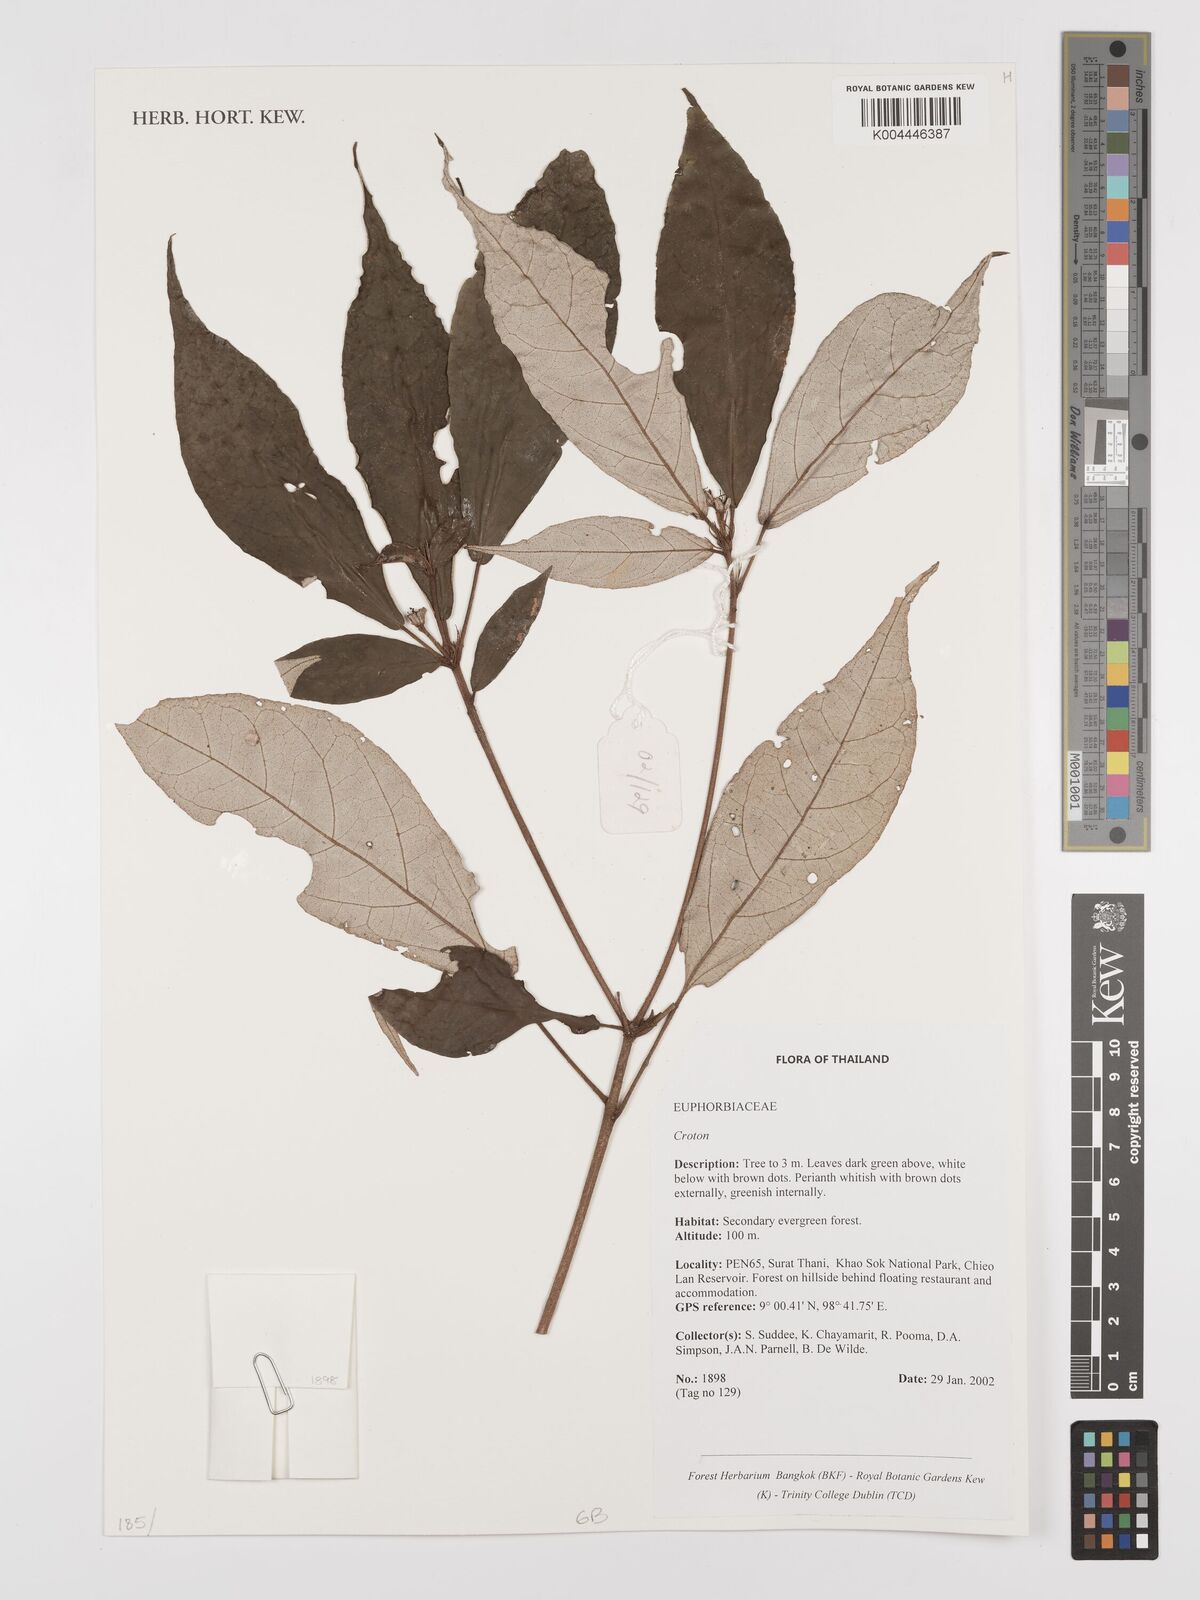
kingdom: Plantae
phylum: Tracheophyta
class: Magnoliopsida
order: Malpighiales
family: Euphorbiaceae
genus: Croton
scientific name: Croton
